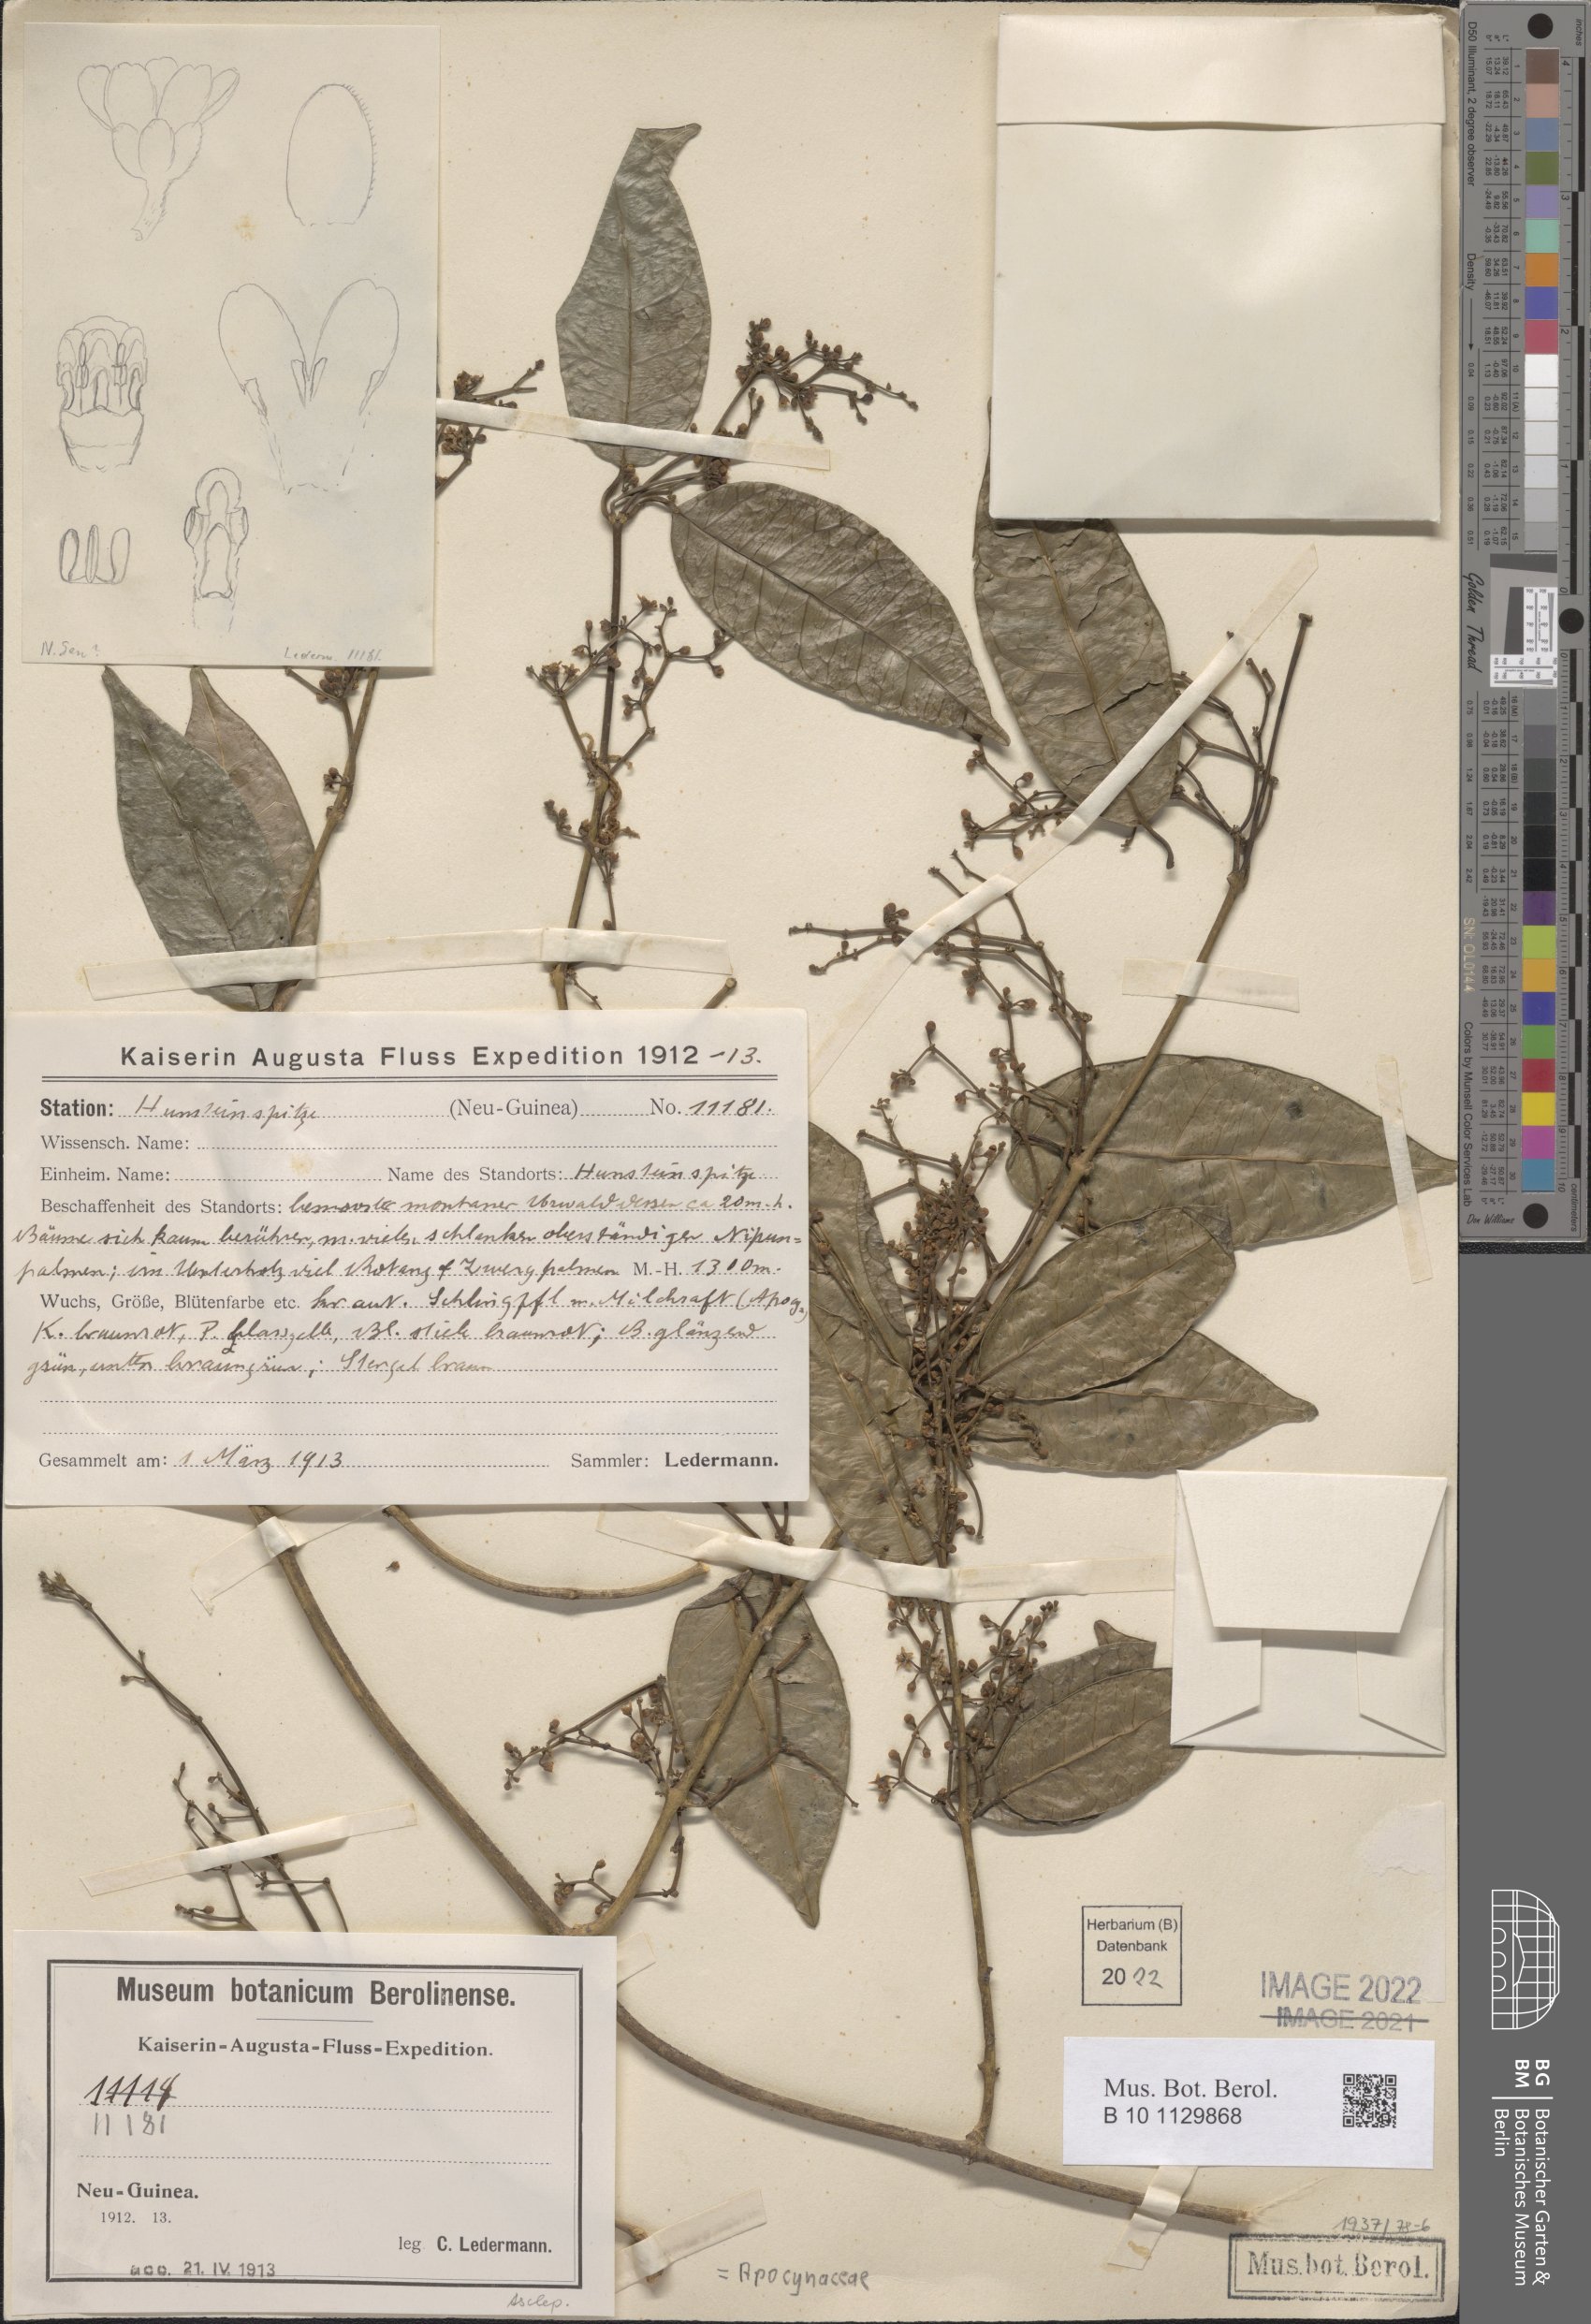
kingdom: Plantae
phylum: Tracheophyta
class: Magnoliopsida
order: Gentianales
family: Apocynaceae
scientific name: Apocynaceae
